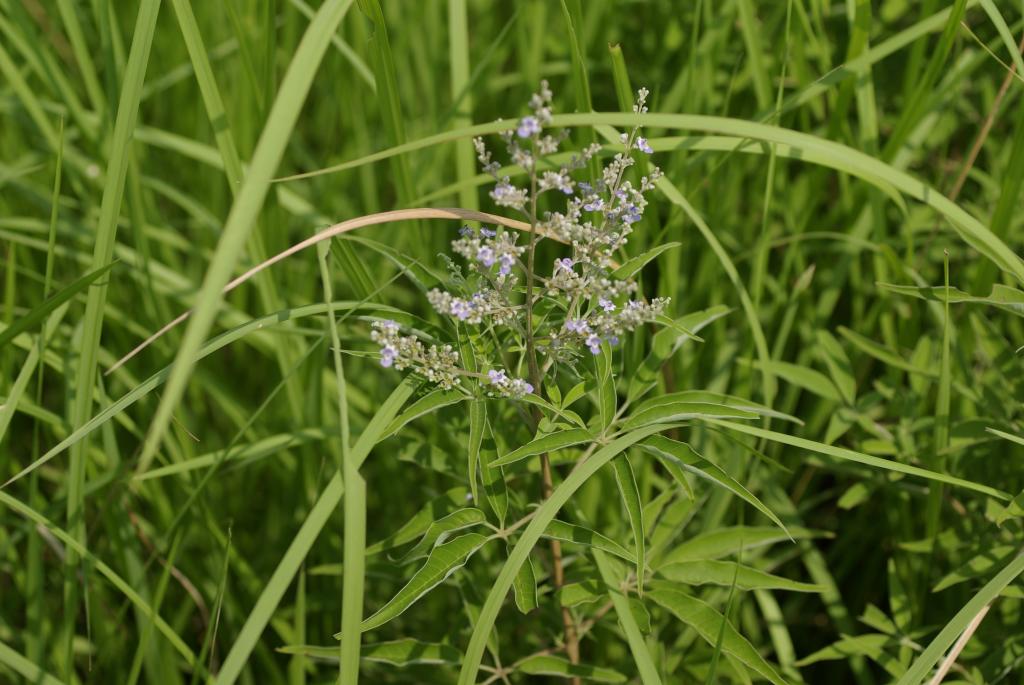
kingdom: Plantae
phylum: Tracheophyta
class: Magnoliopsida
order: Lamiales
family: Lamiaceae
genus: Vitex
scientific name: Vitex negundo
